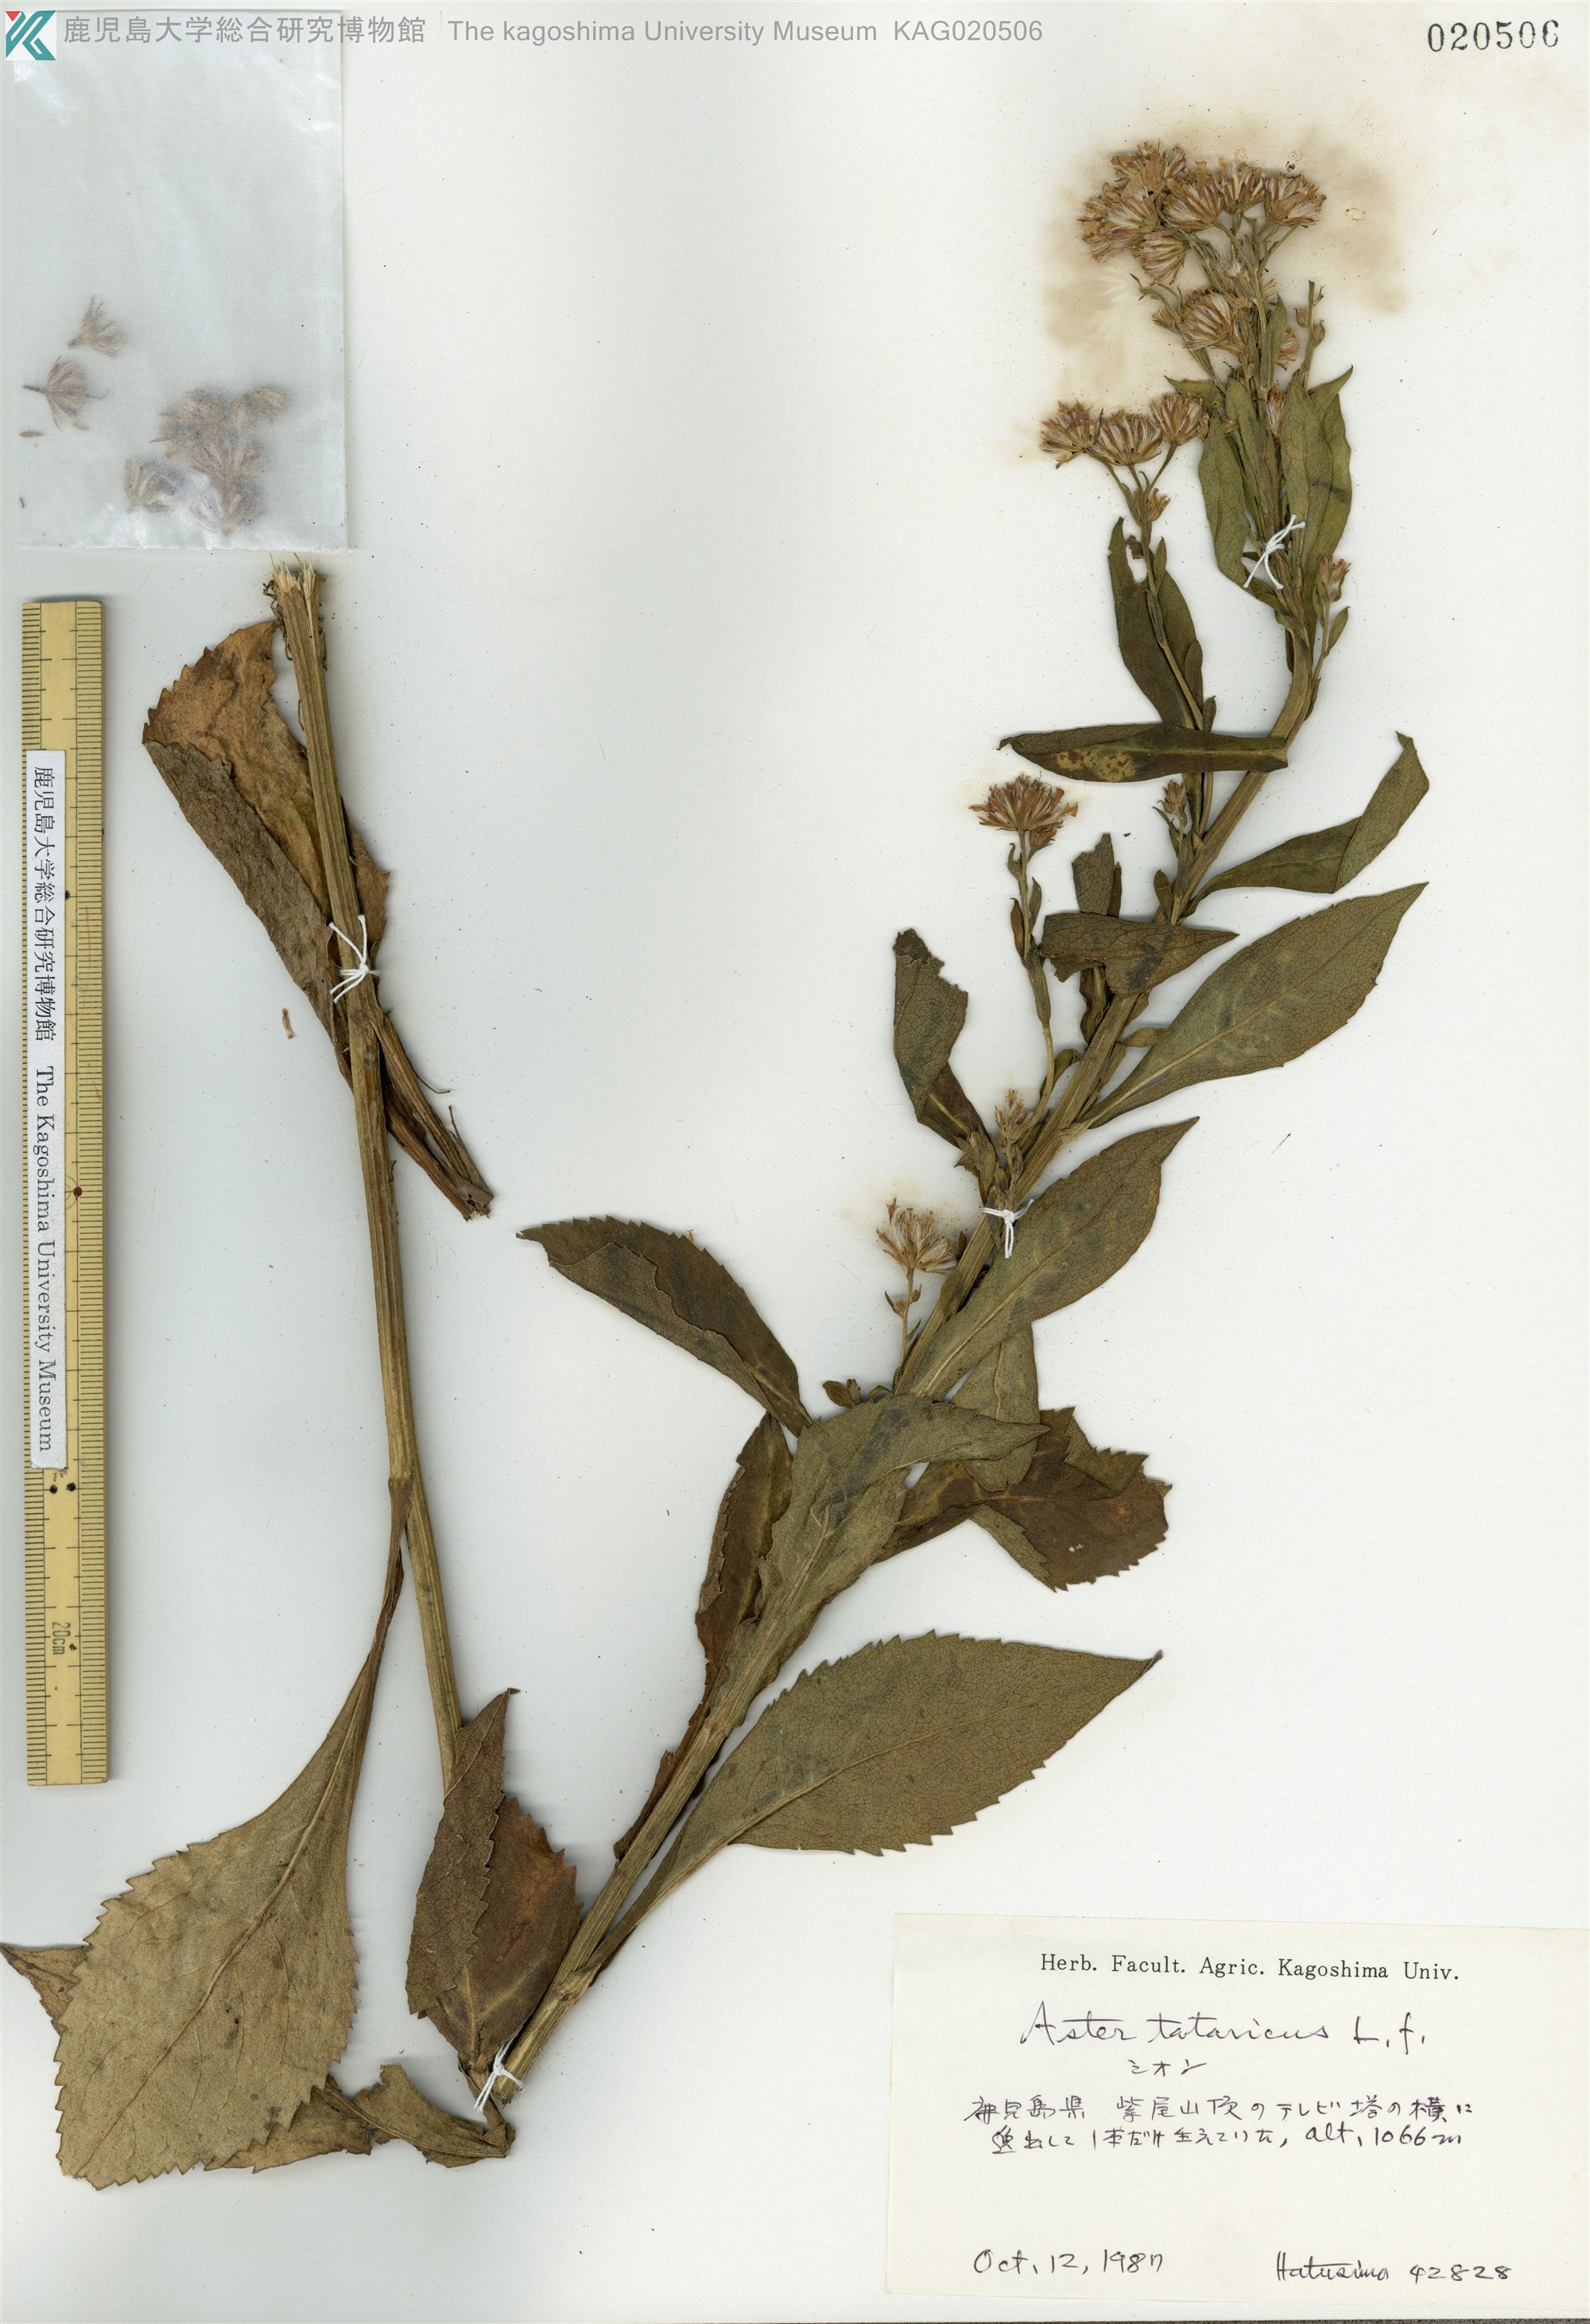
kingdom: Plantae
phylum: Tracheophyta
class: Magnoliopsida
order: Asterales
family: Asteraceae
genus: Aster
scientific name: Aster tataricus
